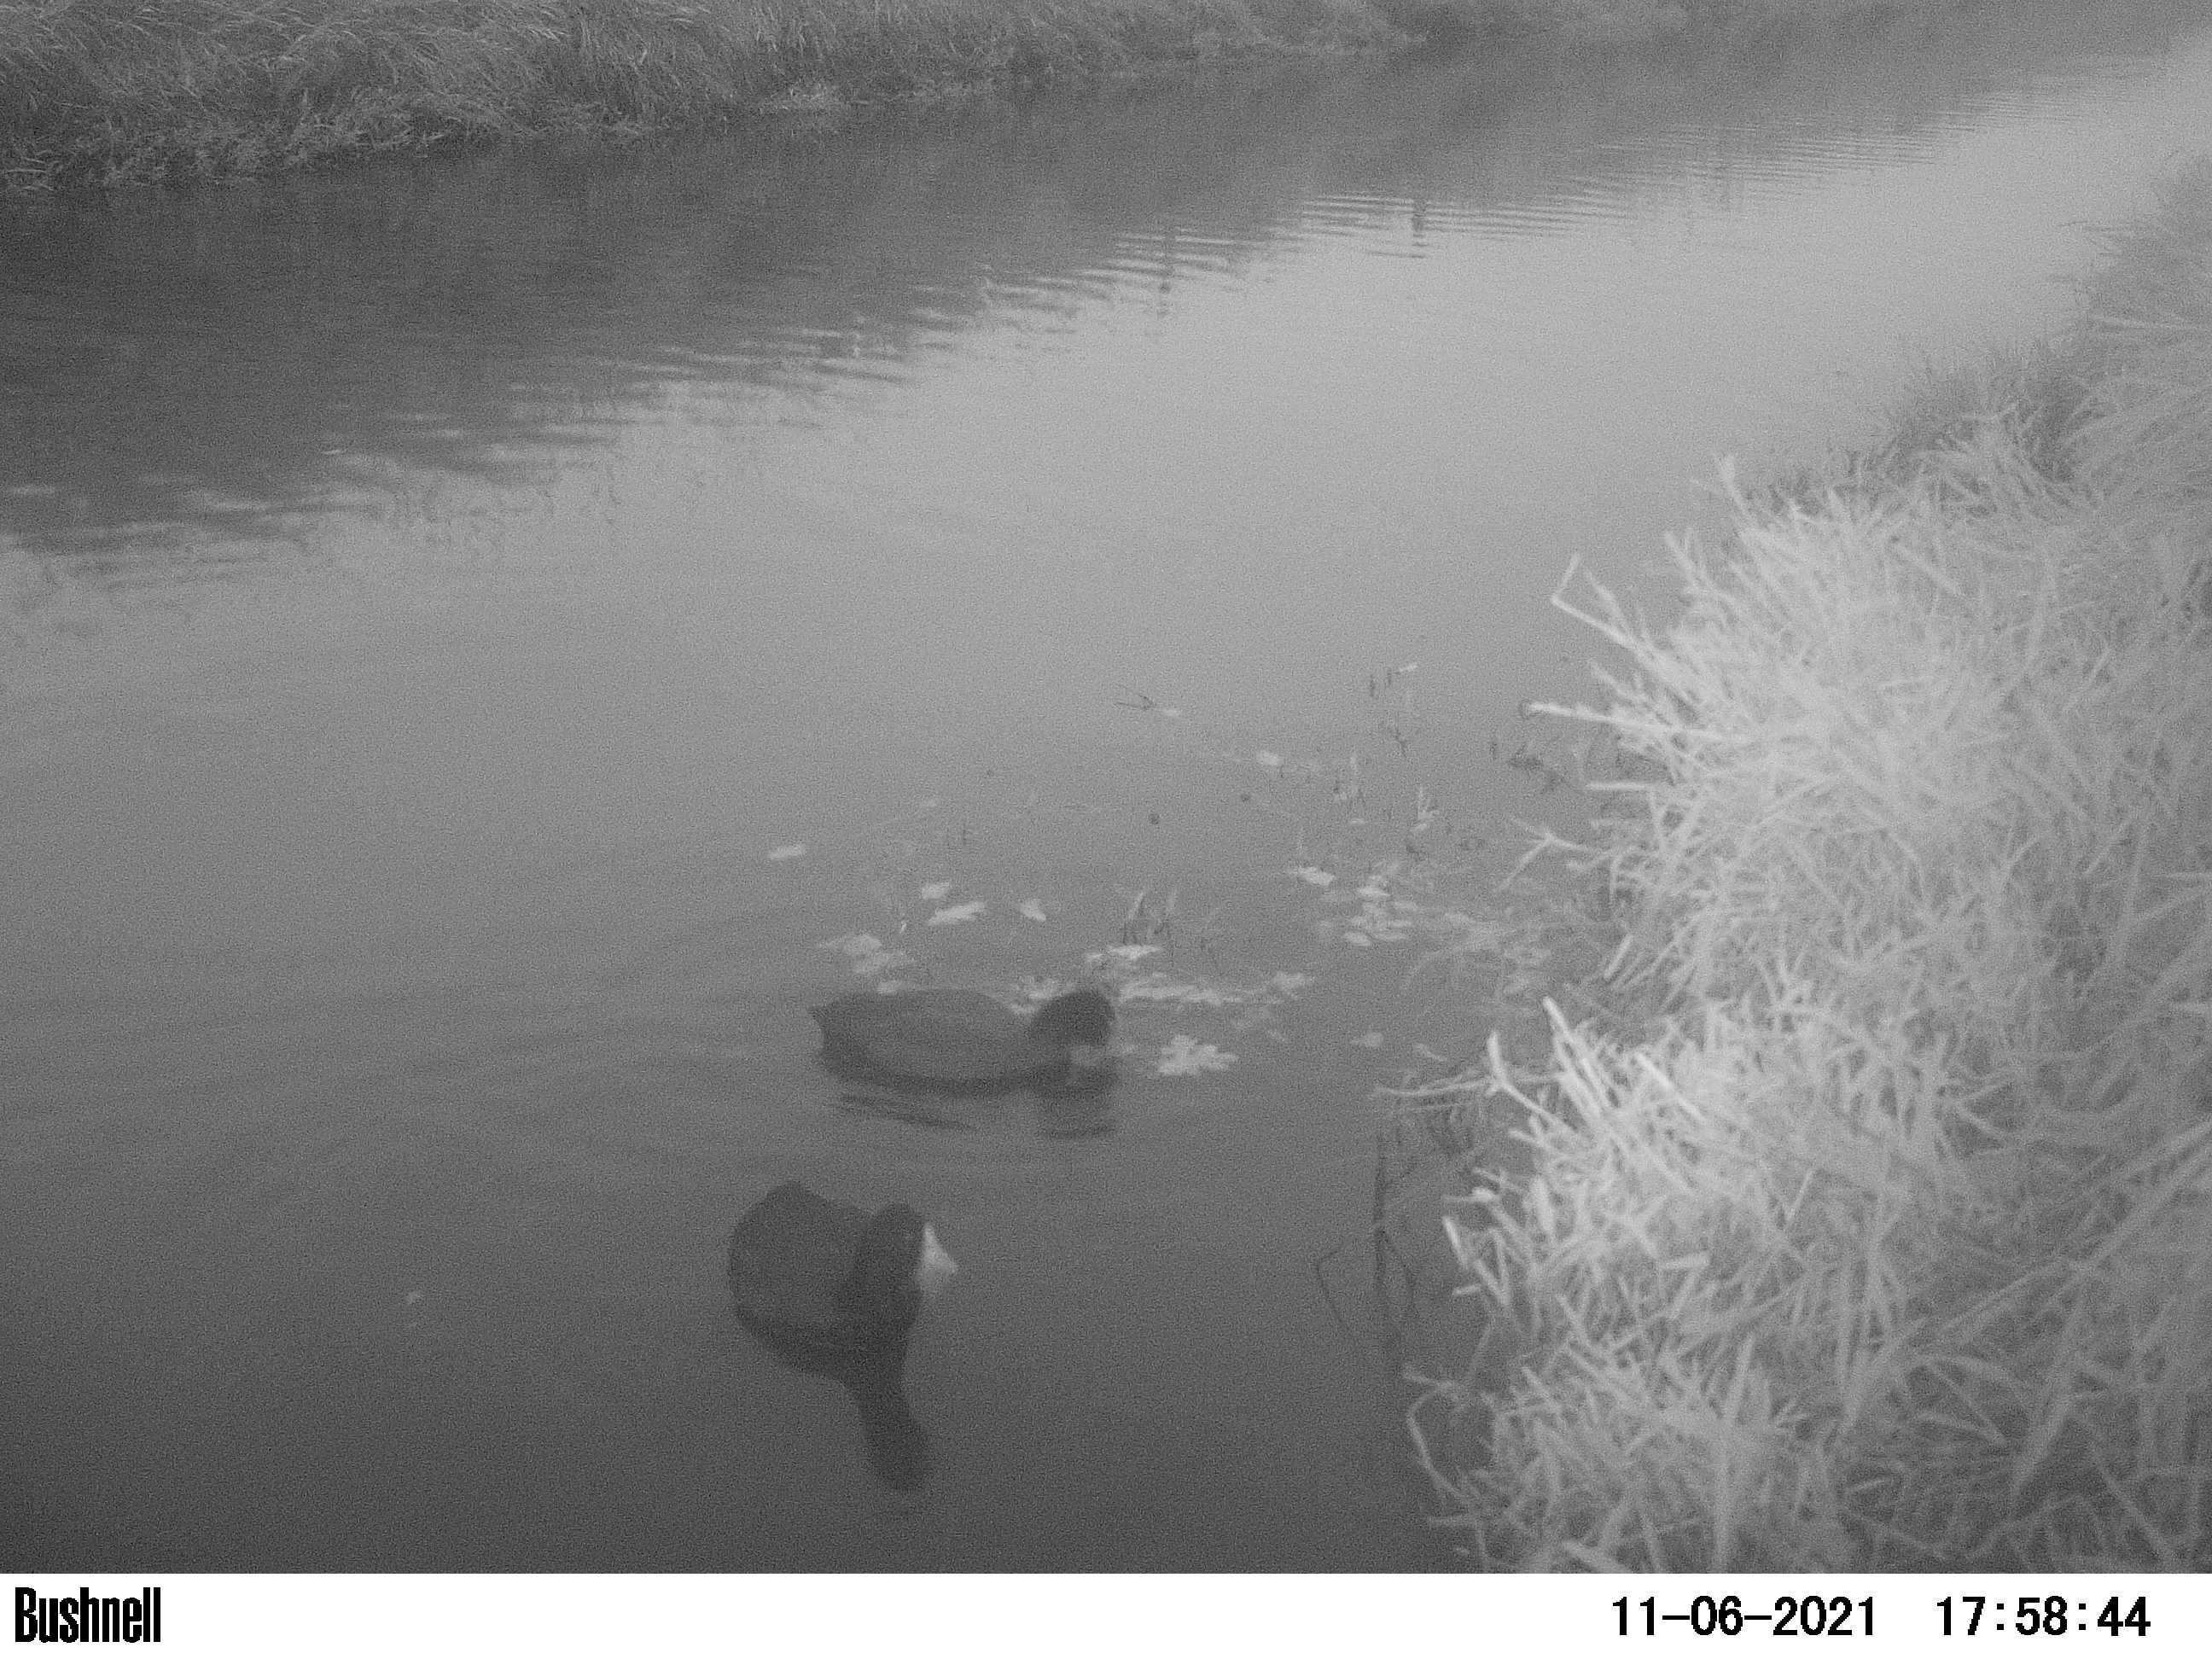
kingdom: Animalia
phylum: Chordata
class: Aves
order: Gruiformes
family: Rallidae
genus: Fulica
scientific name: Fulica atra
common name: Eurasian coot
